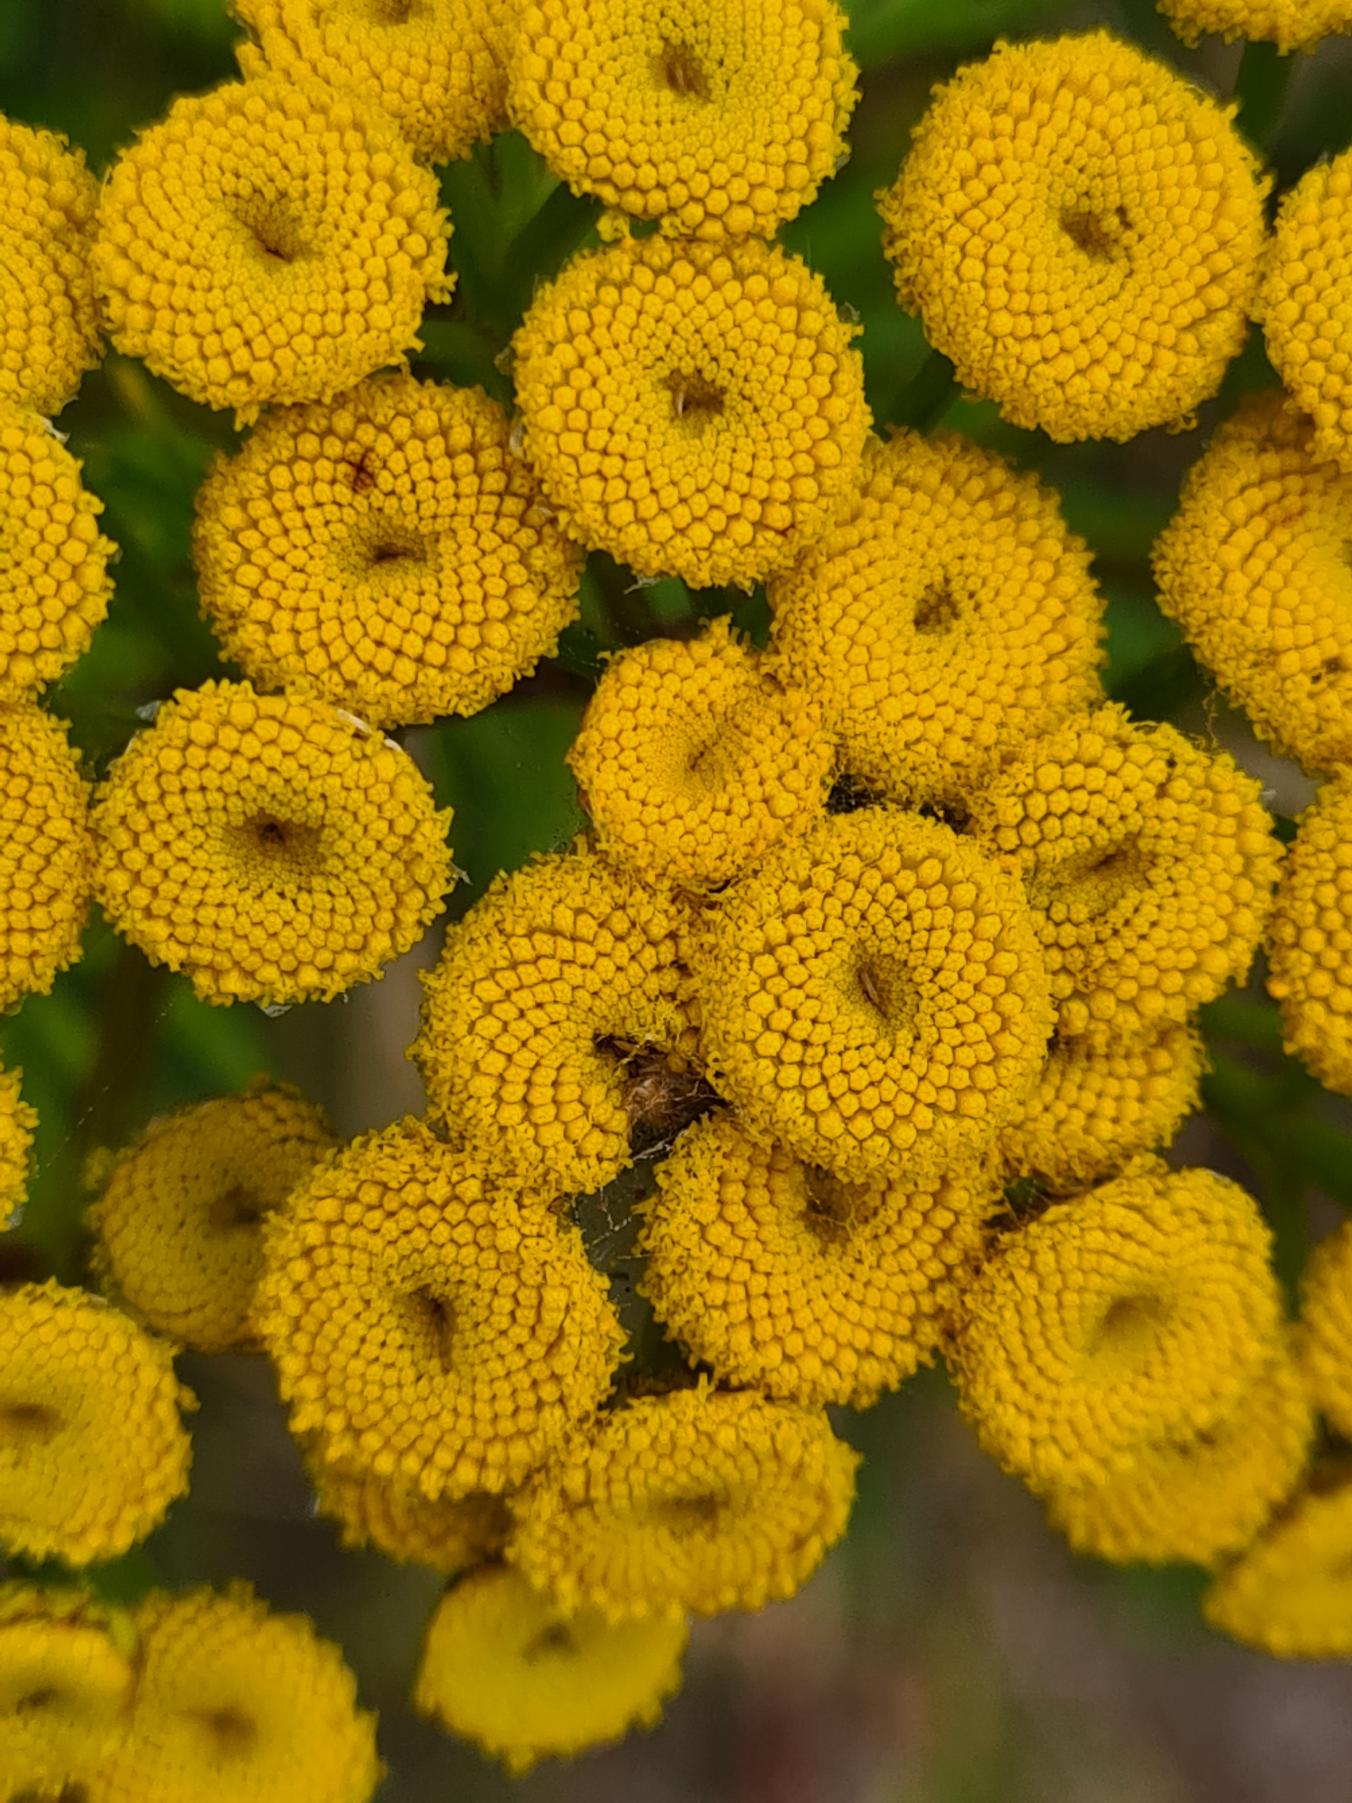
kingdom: Plantae
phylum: Tracheophyta
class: Magnoliopsida
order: Asterales
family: Asteraceae
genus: Tanacetum
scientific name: Tanacetum vulgare
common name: Rejnfan
